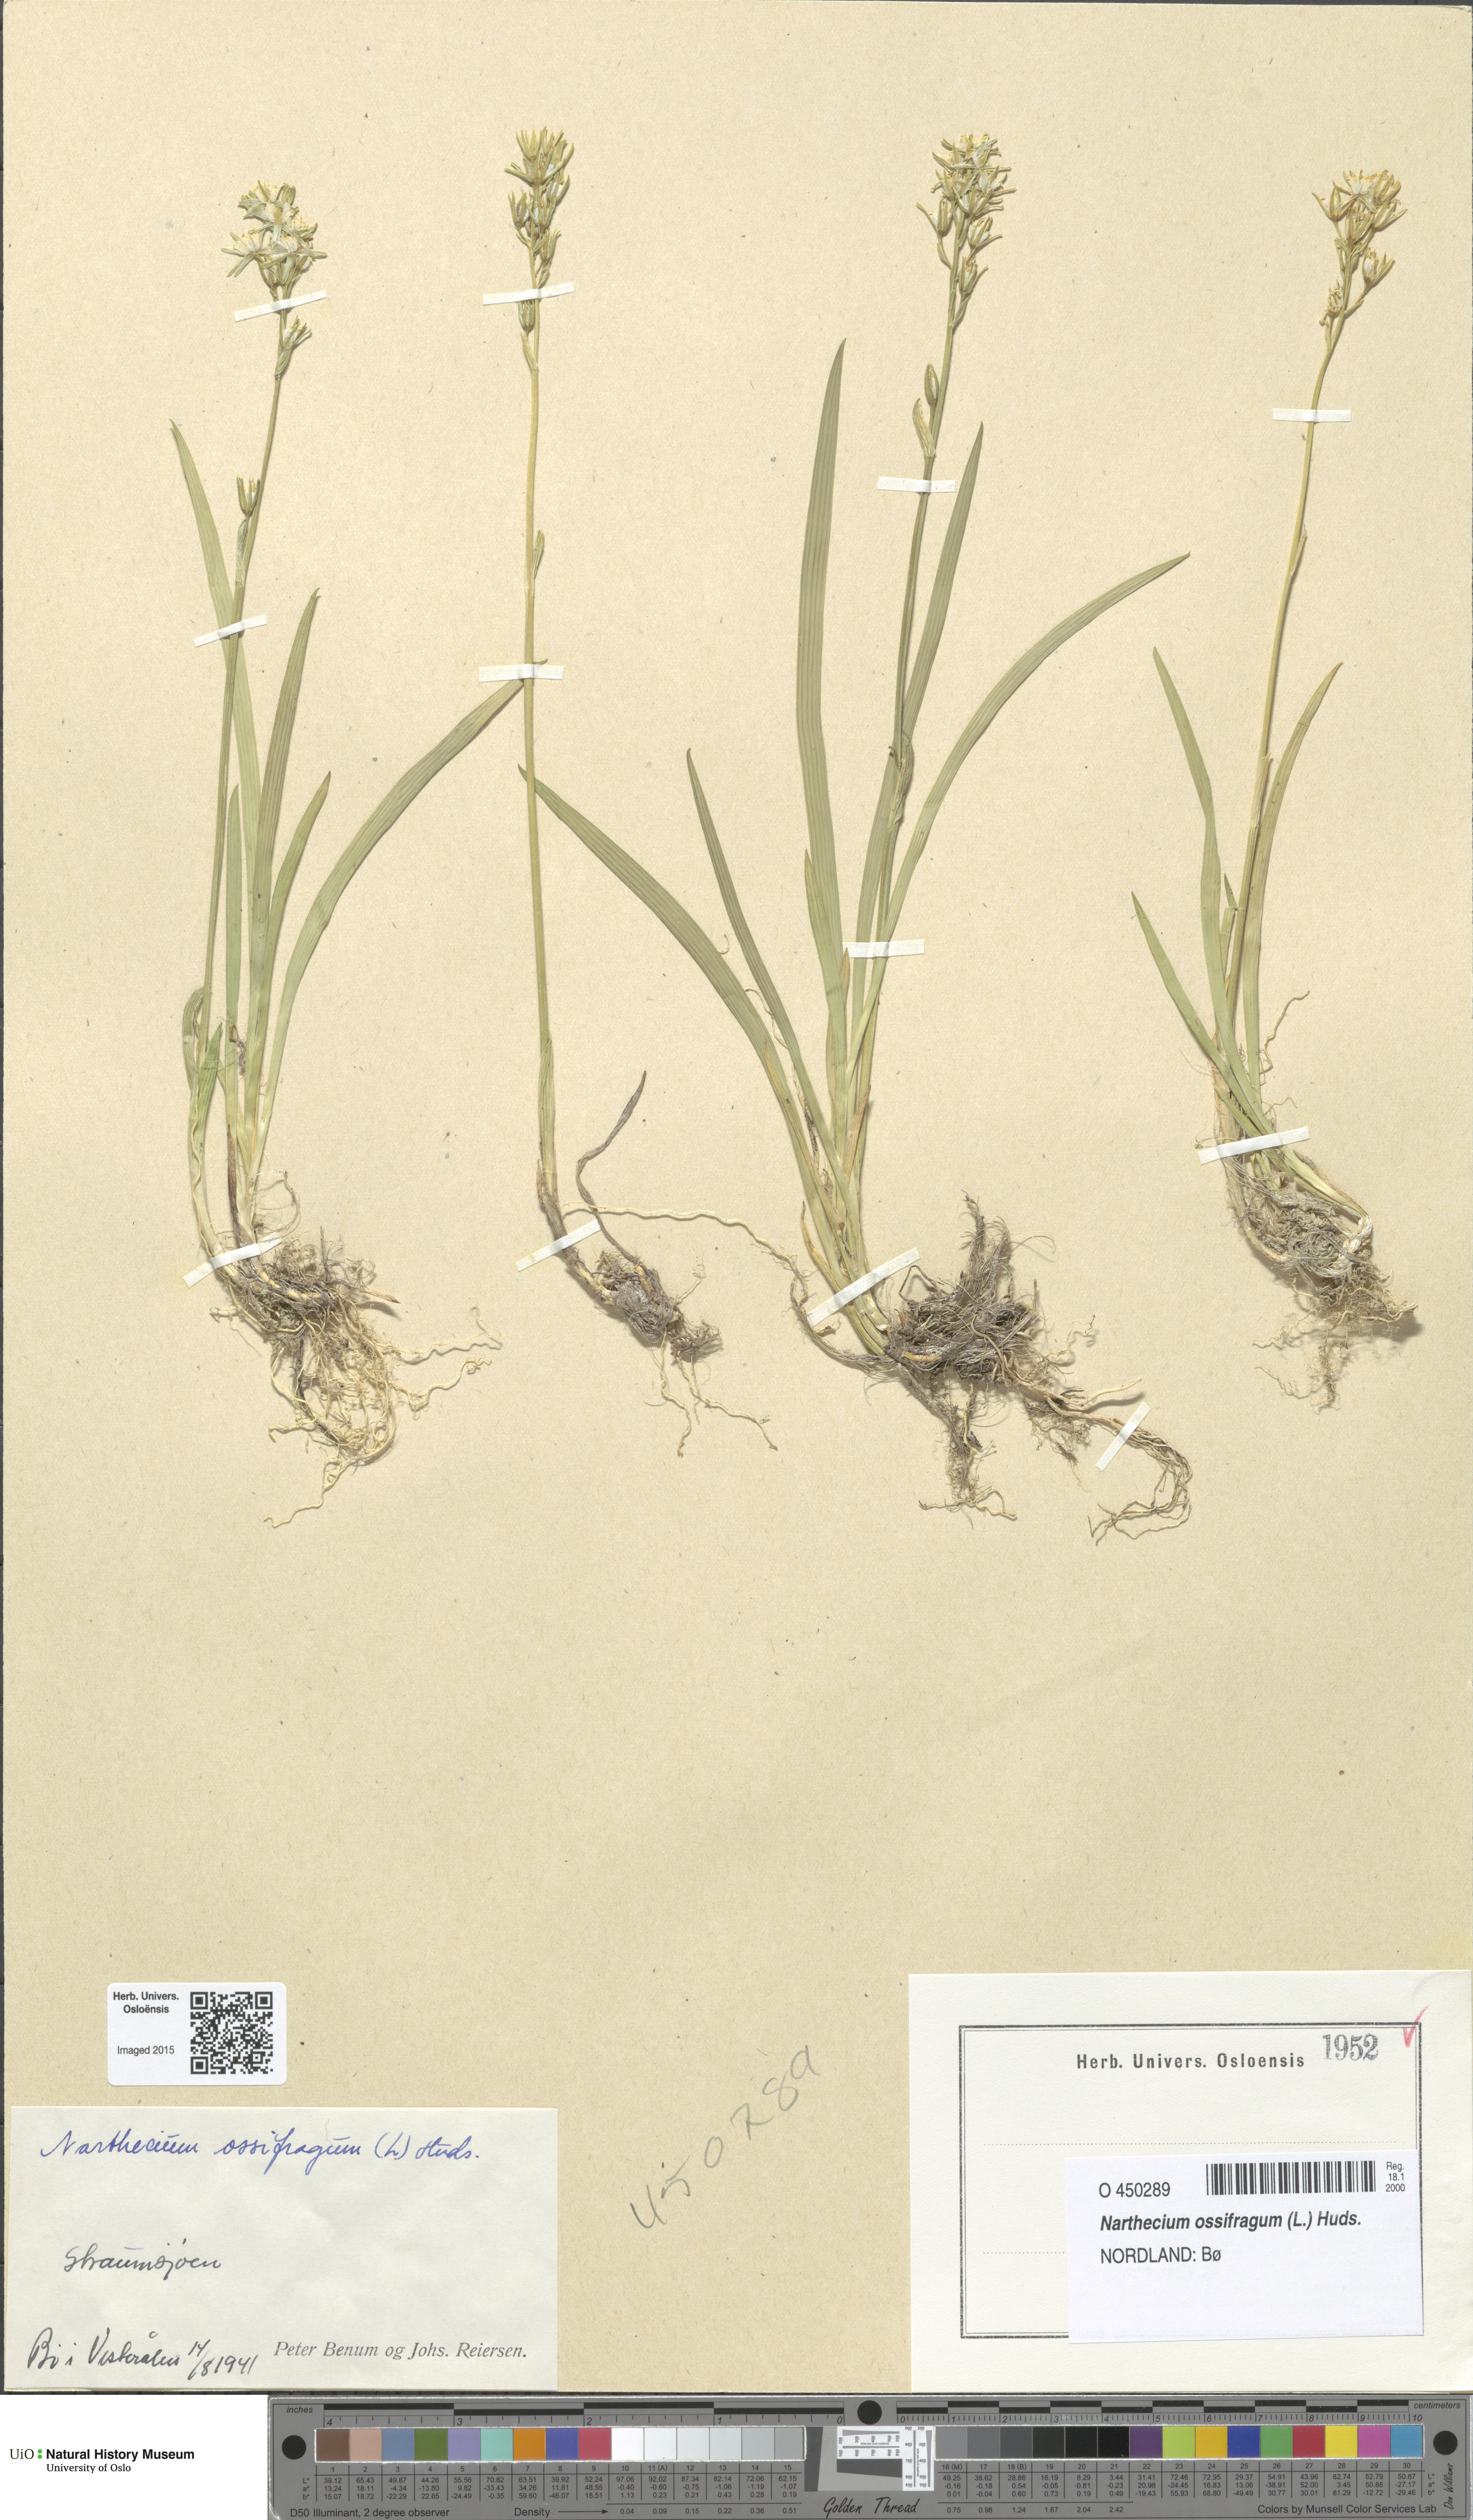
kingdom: Plantae
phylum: Tracheophyta
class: Liliopsida
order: Dioscoreales
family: Nartheciaceae
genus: Narthecium
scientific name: Narthecium ossifragum
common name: Bog asphodel
